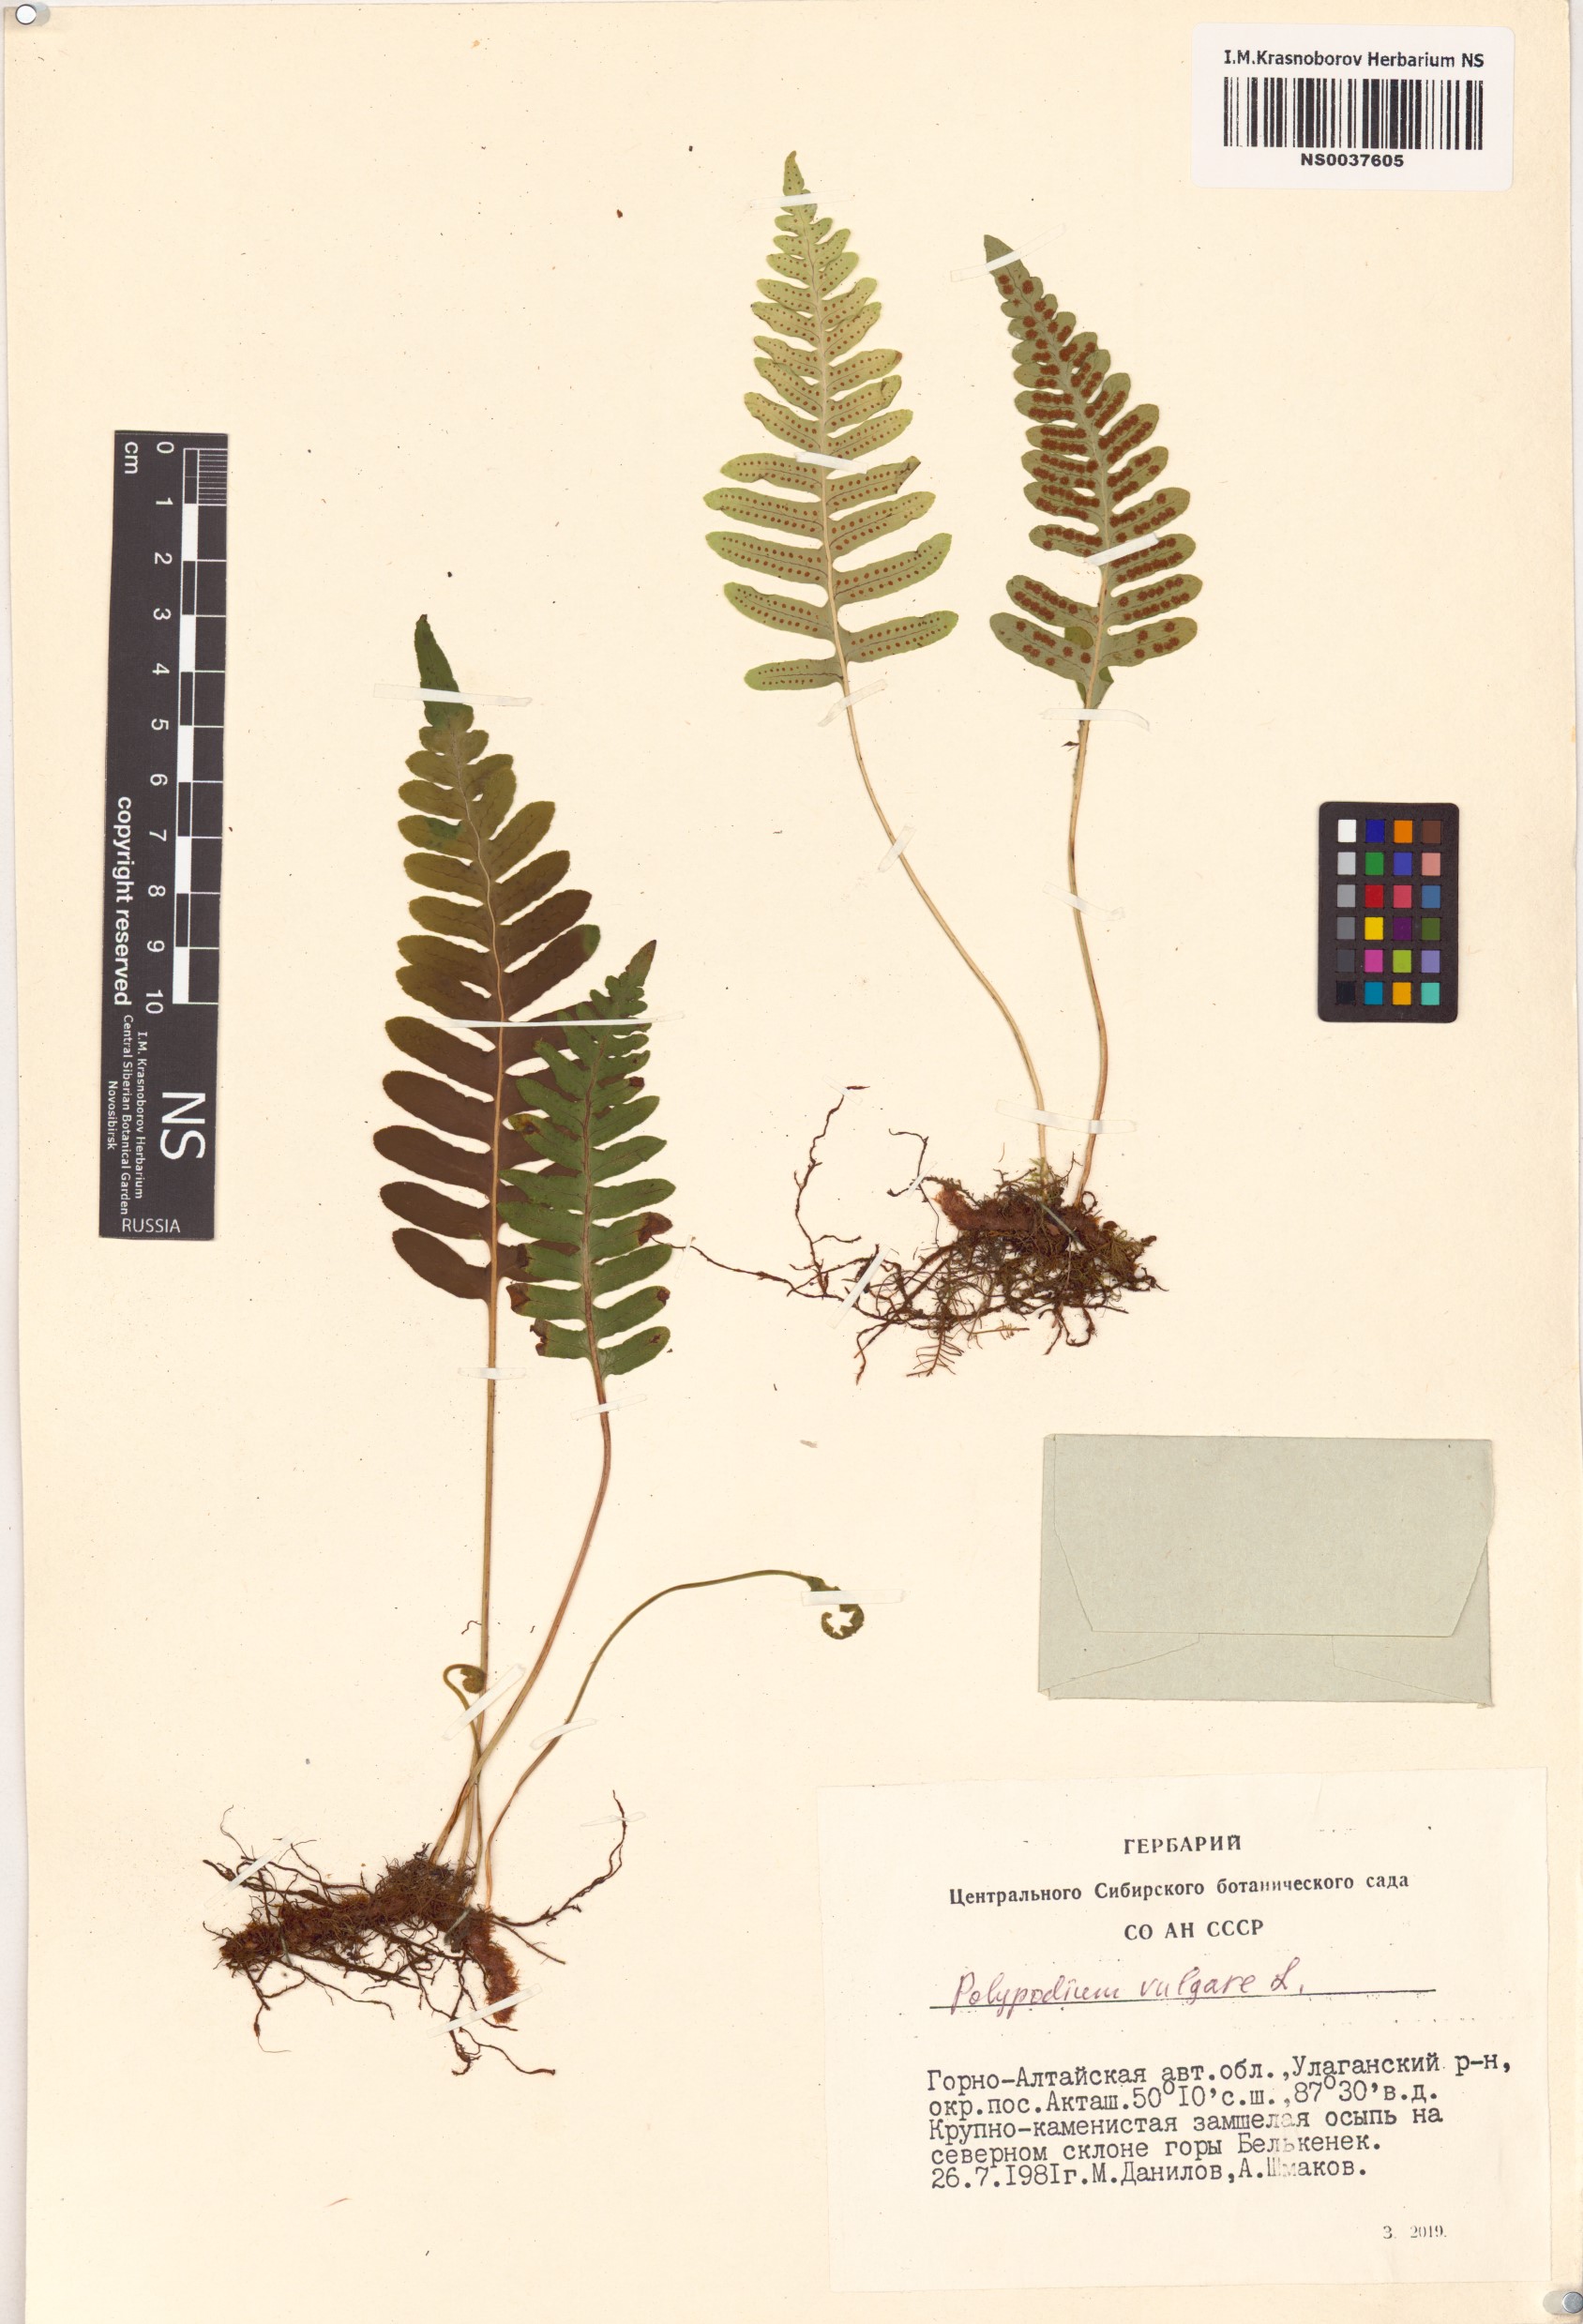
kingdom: Plantae
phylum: Tracheophyta
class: Polypodiopsida
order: Polypodiales
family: Polypodiaceae
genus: Polypodium
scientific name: Polypodium vulgare
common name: Common polypody
